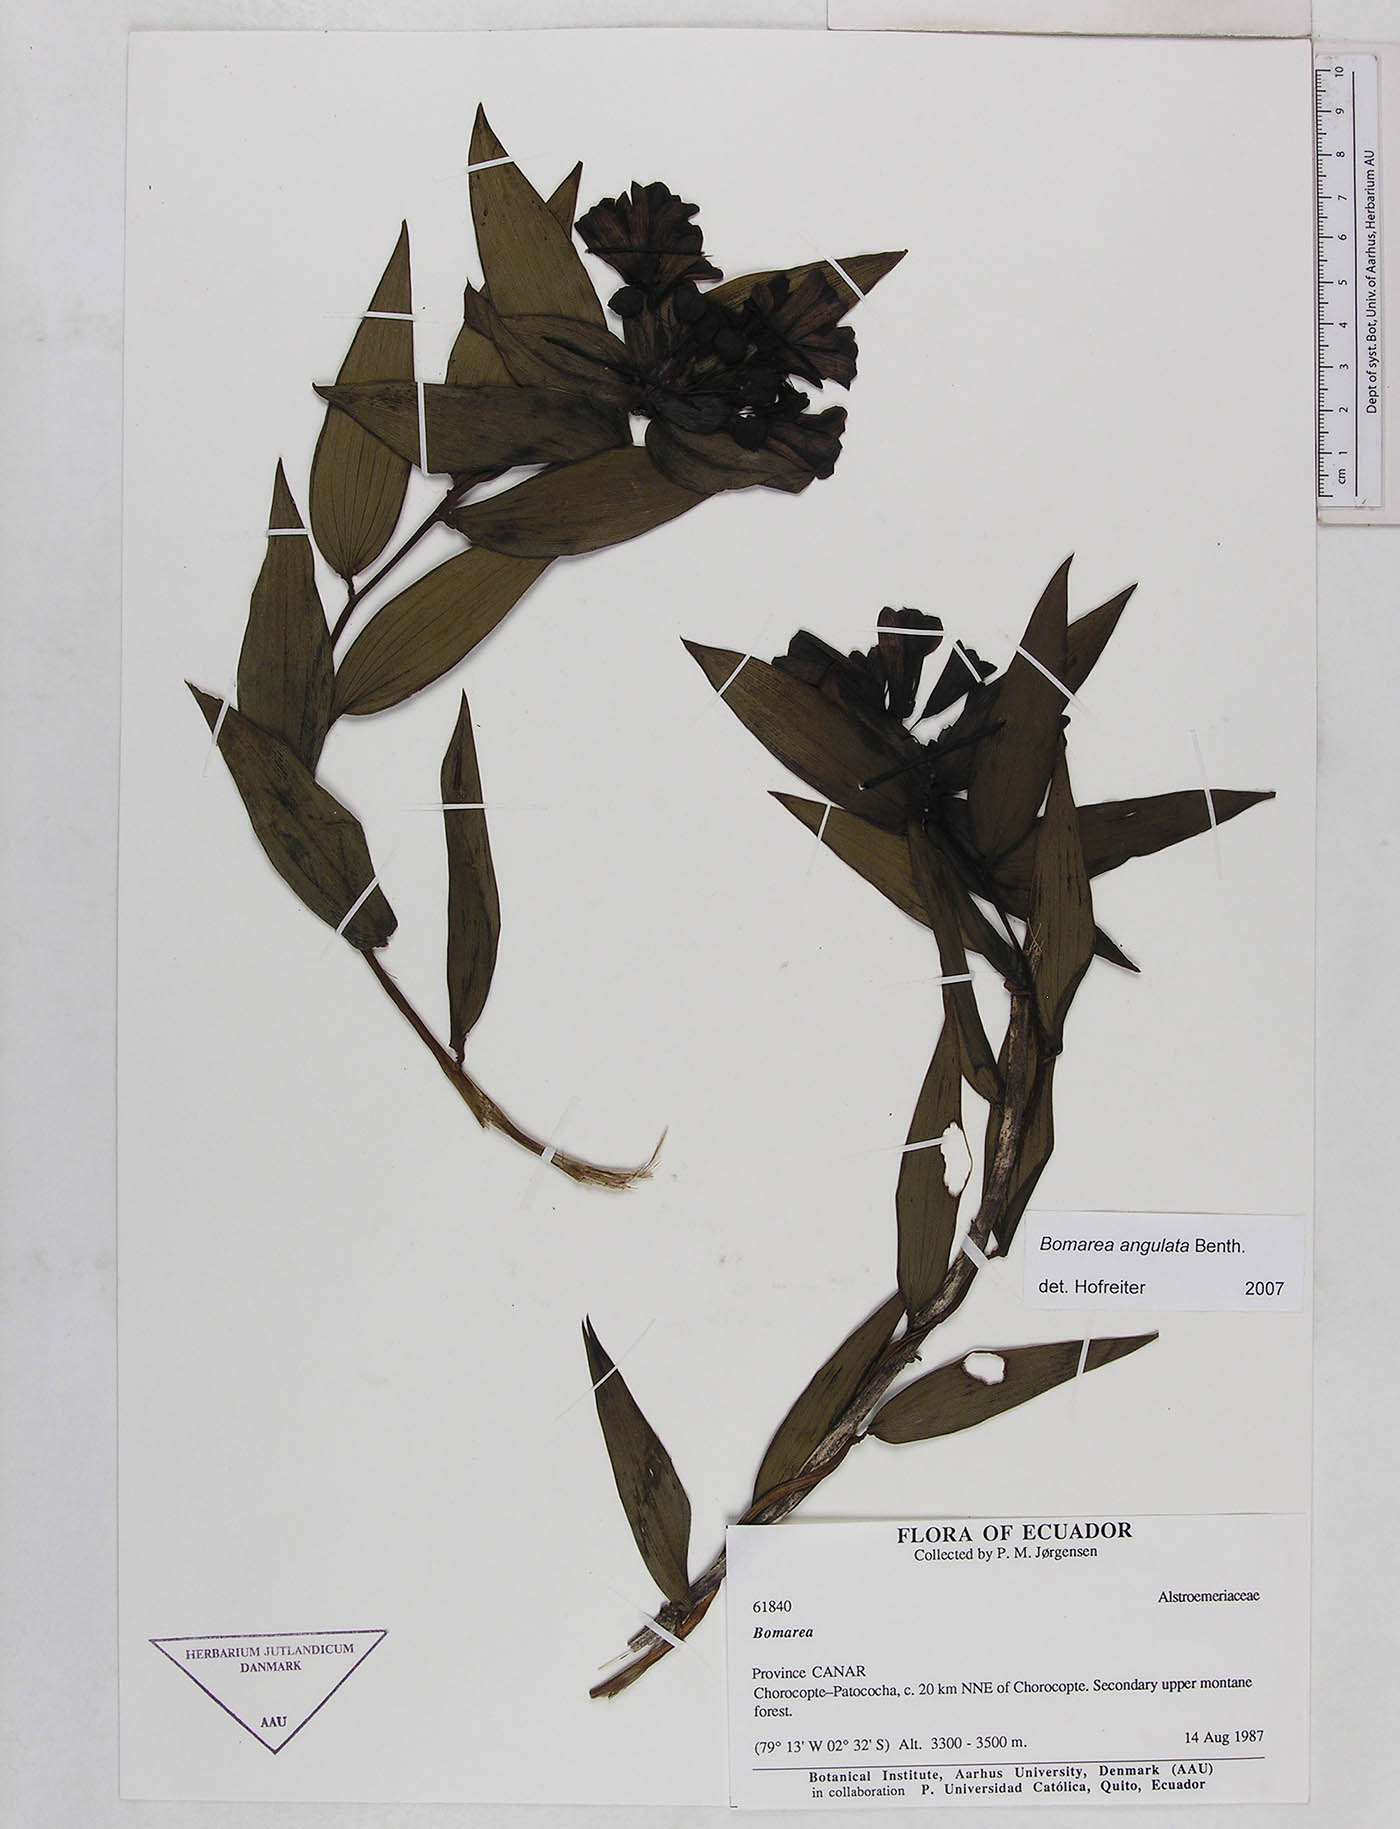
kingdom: Plantae
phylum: Tracheophyta
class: Liliopsida
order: Liliales
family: Alstroemeriaceae
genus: Bomarea
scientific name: Bomarea angulata
